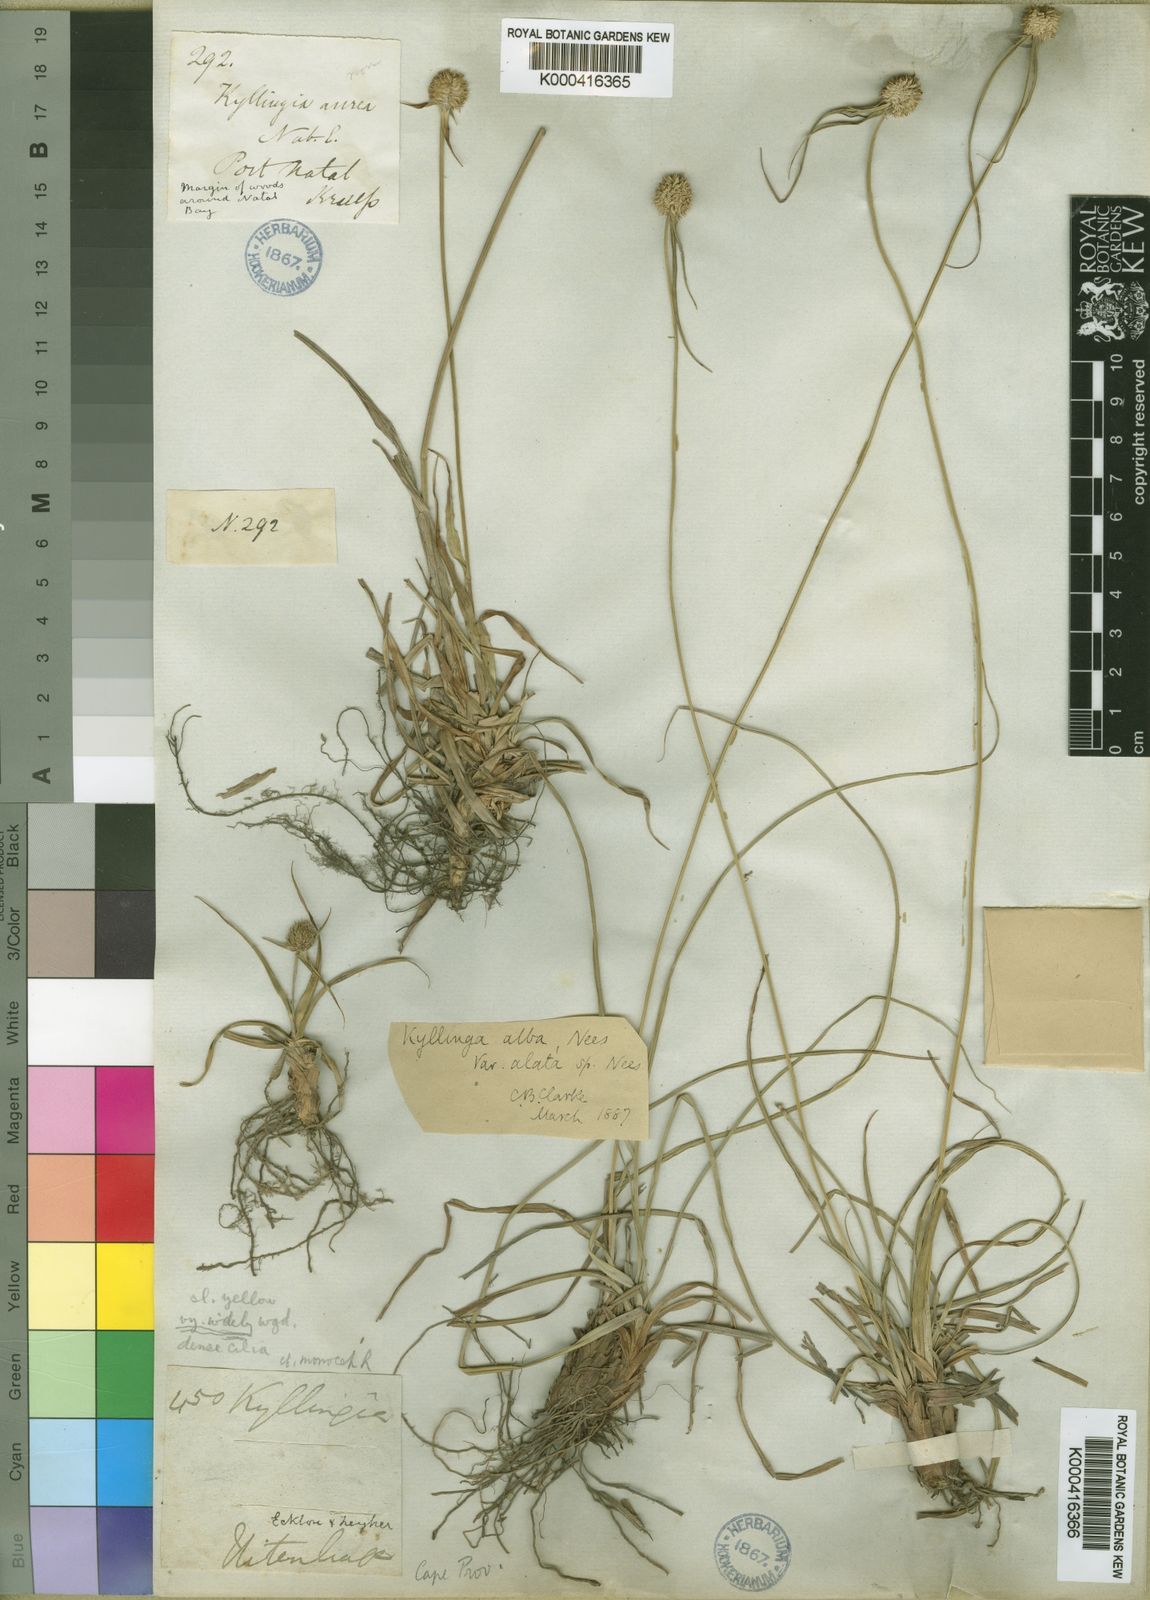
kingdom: Plantae
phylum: Tracheophyta
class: Liliopsida
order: Poales
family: Cyperaceae
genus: Cyperus
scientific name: Cyperus alatus
